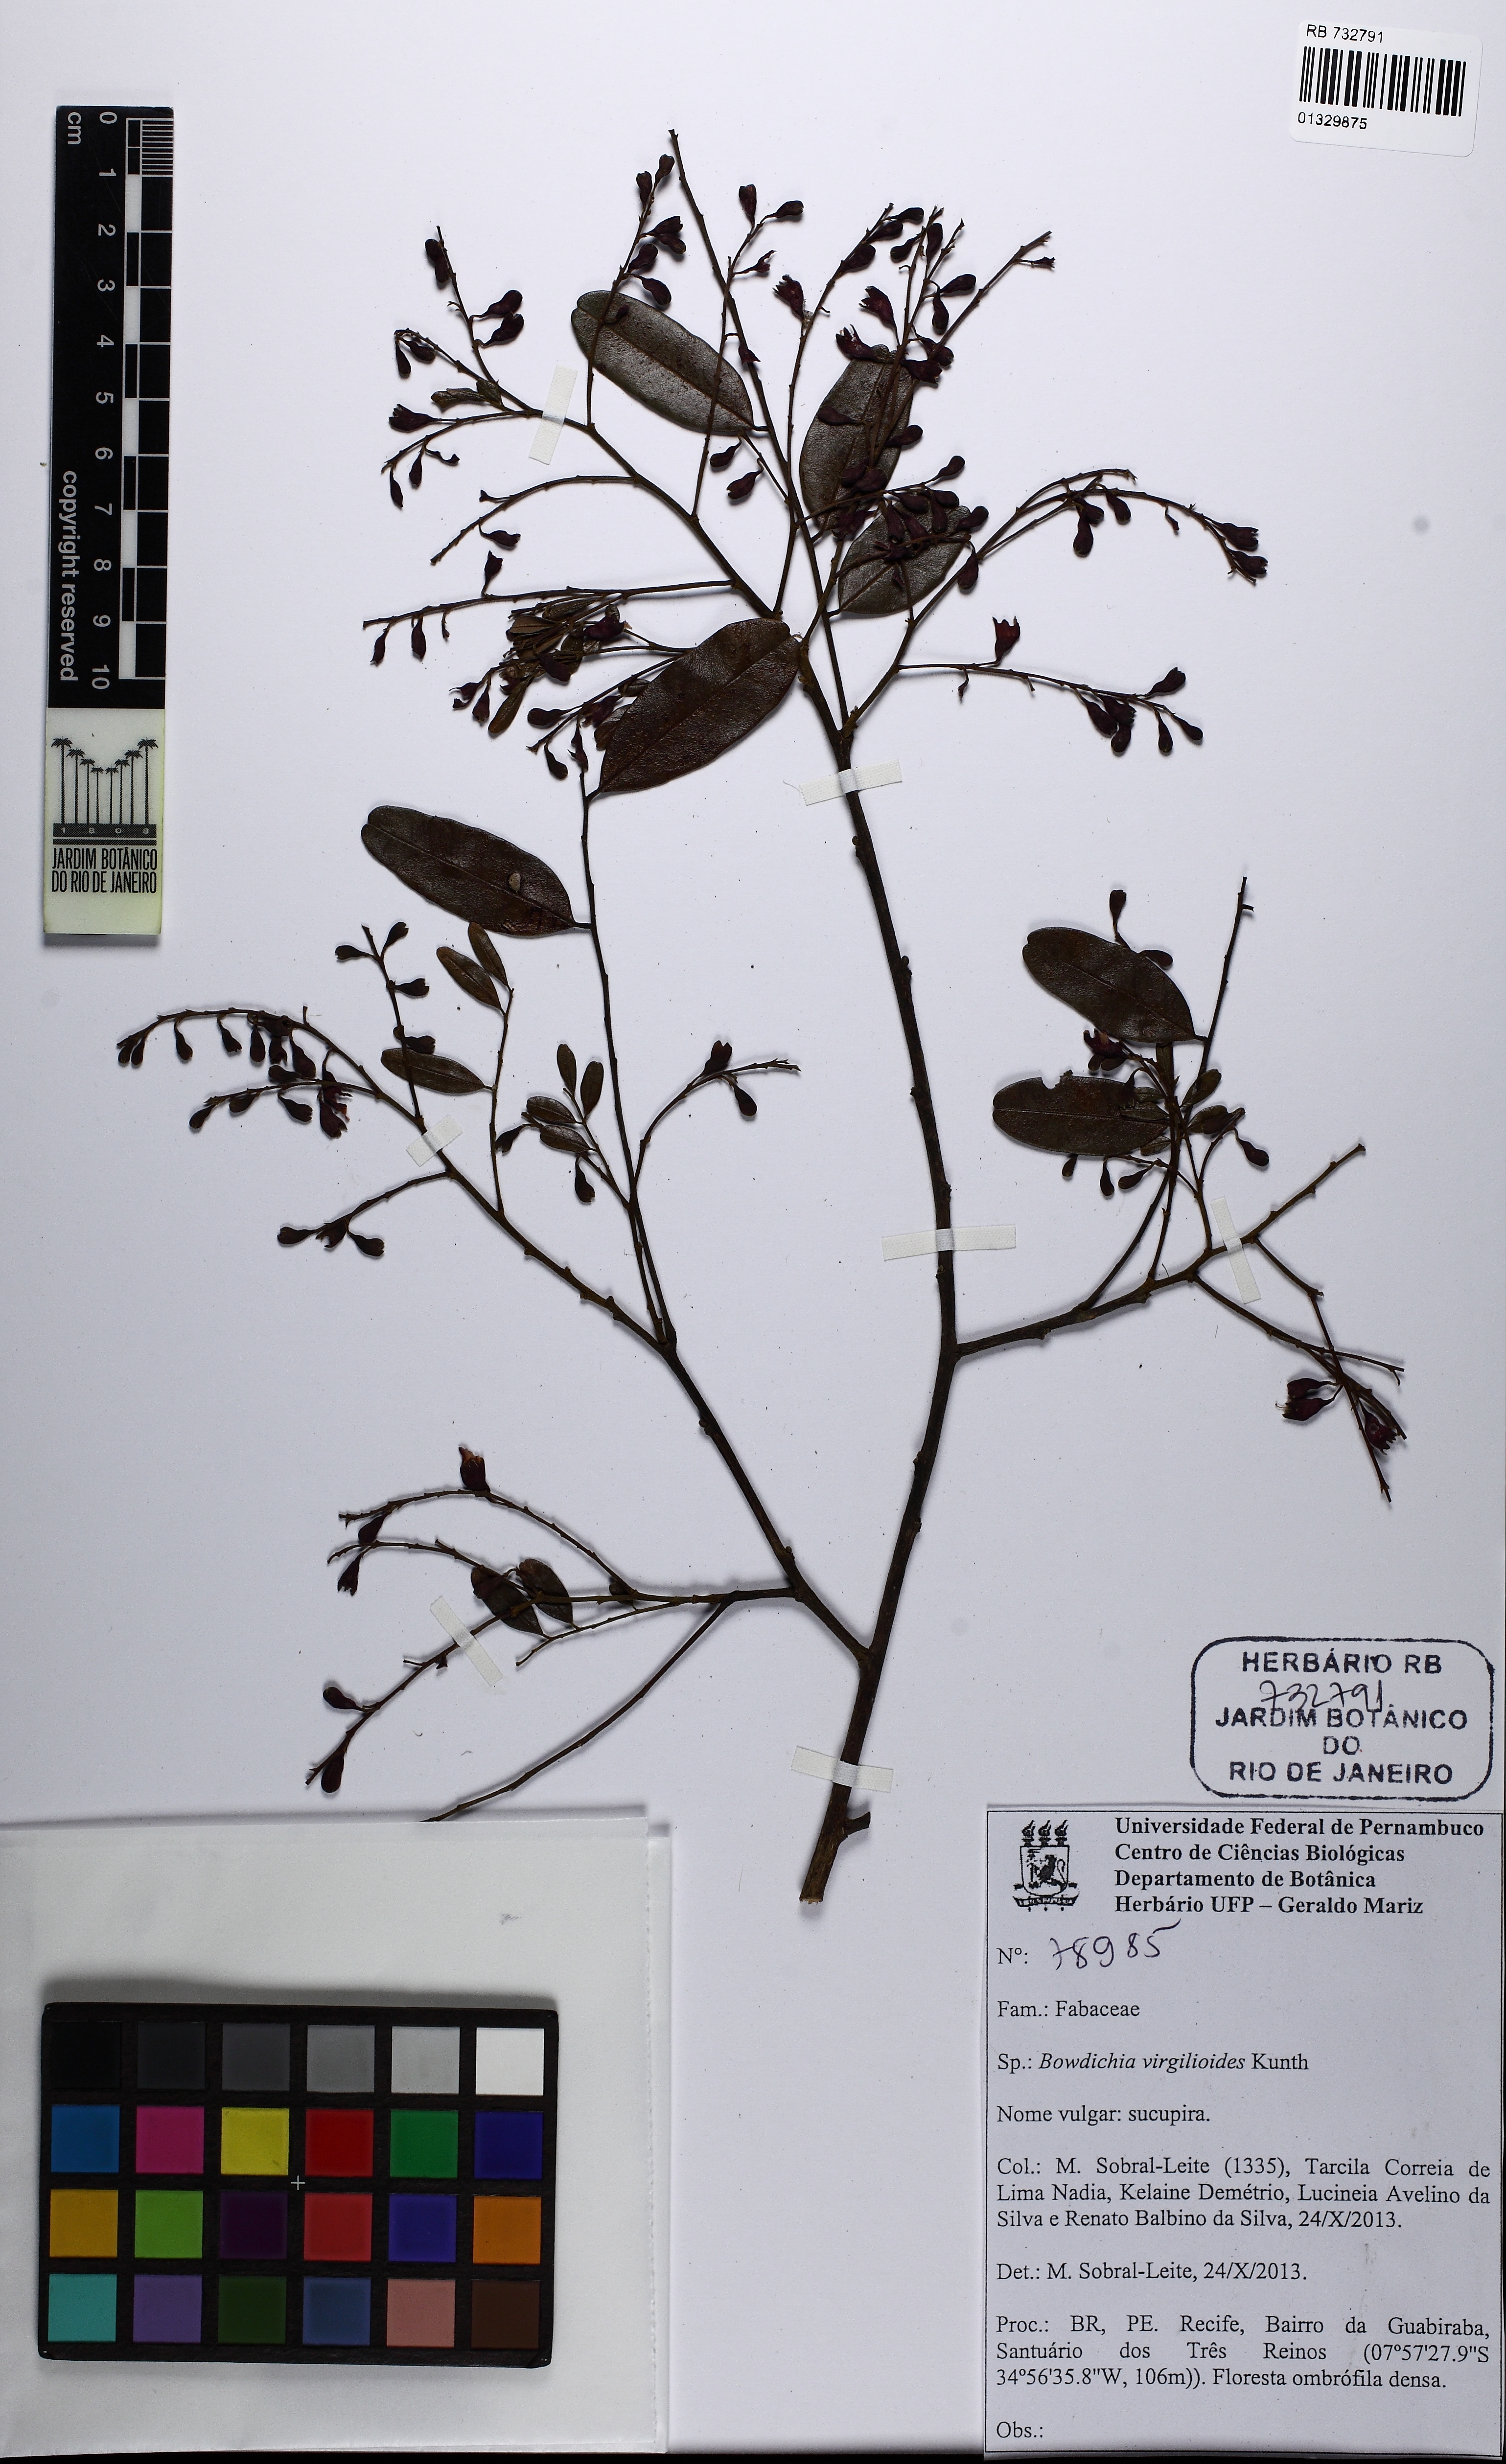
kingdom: Plantae
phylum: Tracheophyta
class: Magnoliopsida
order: Fabales
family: Fabaceae
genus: Bowdichia
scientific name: Bowdichia virgilioides
